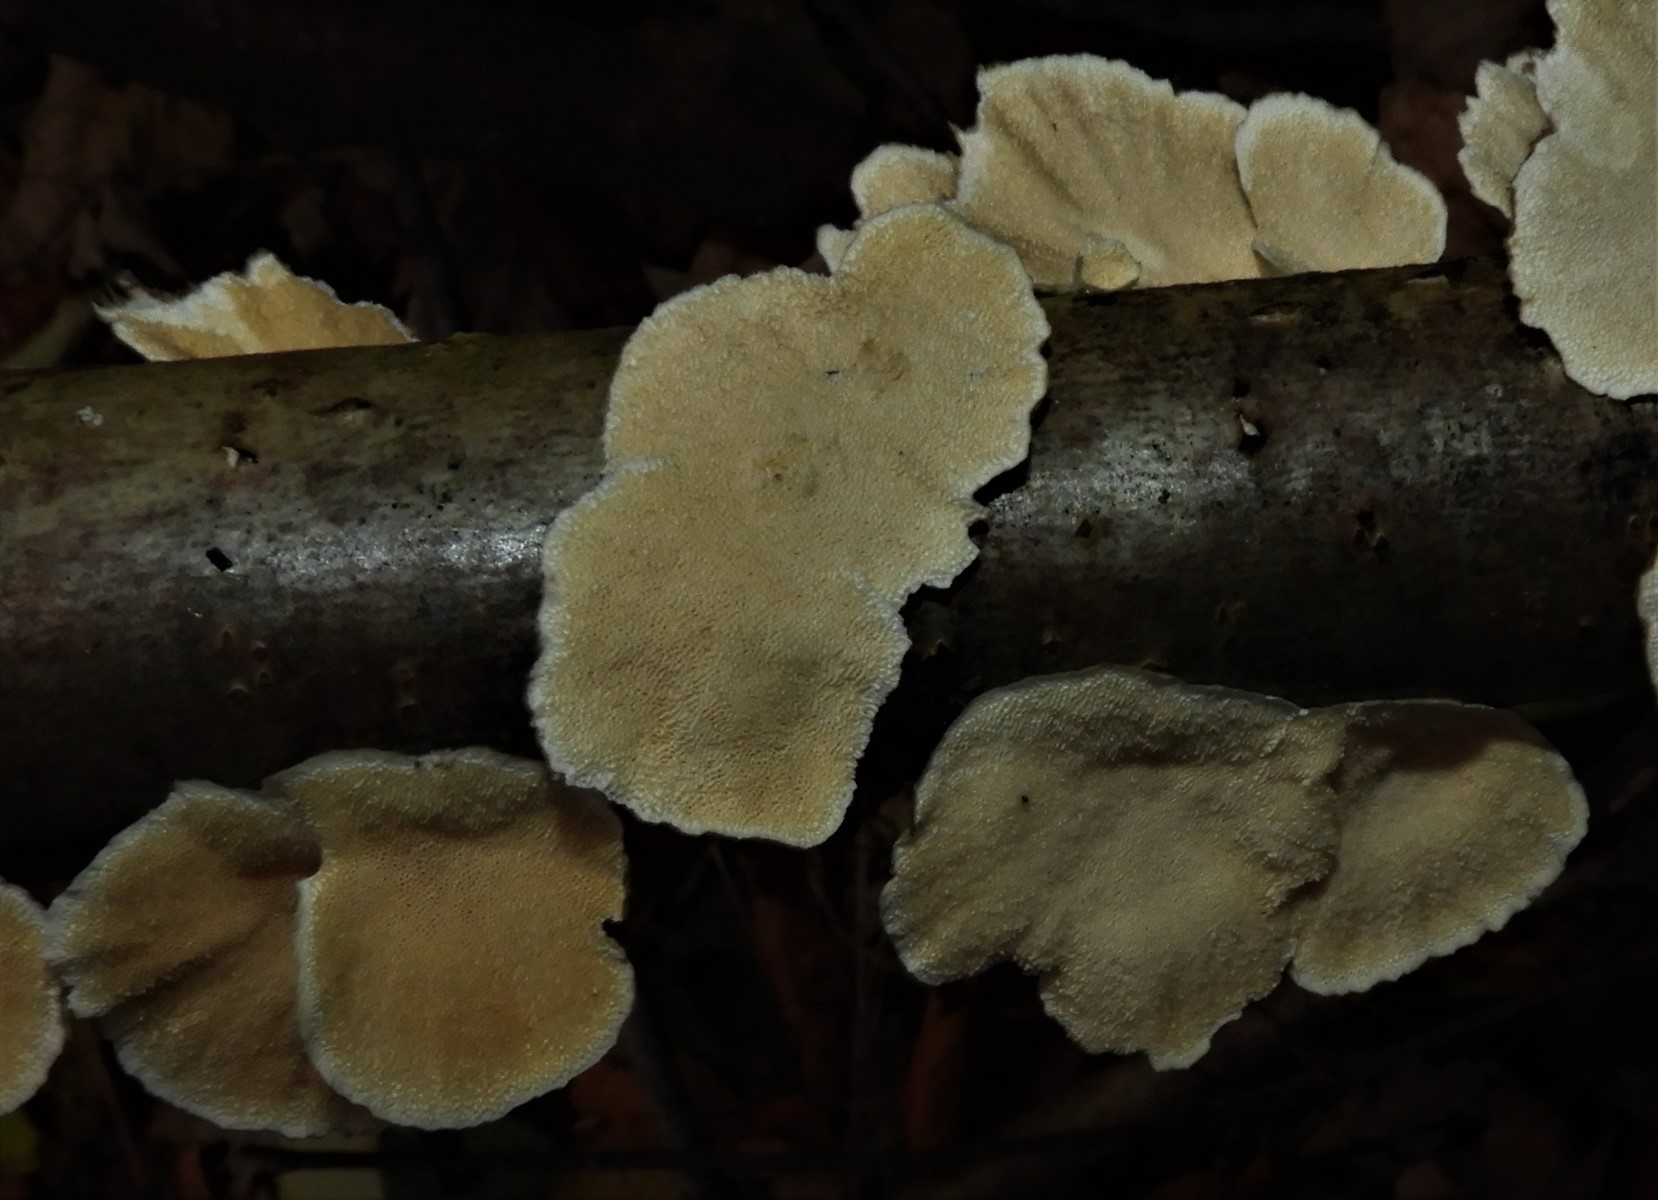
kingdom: Fungi
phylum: Basidiomycota
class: Agaricomycetes
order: Polyporales
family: Polyporaceae
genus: Trametes
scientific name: Trametes
